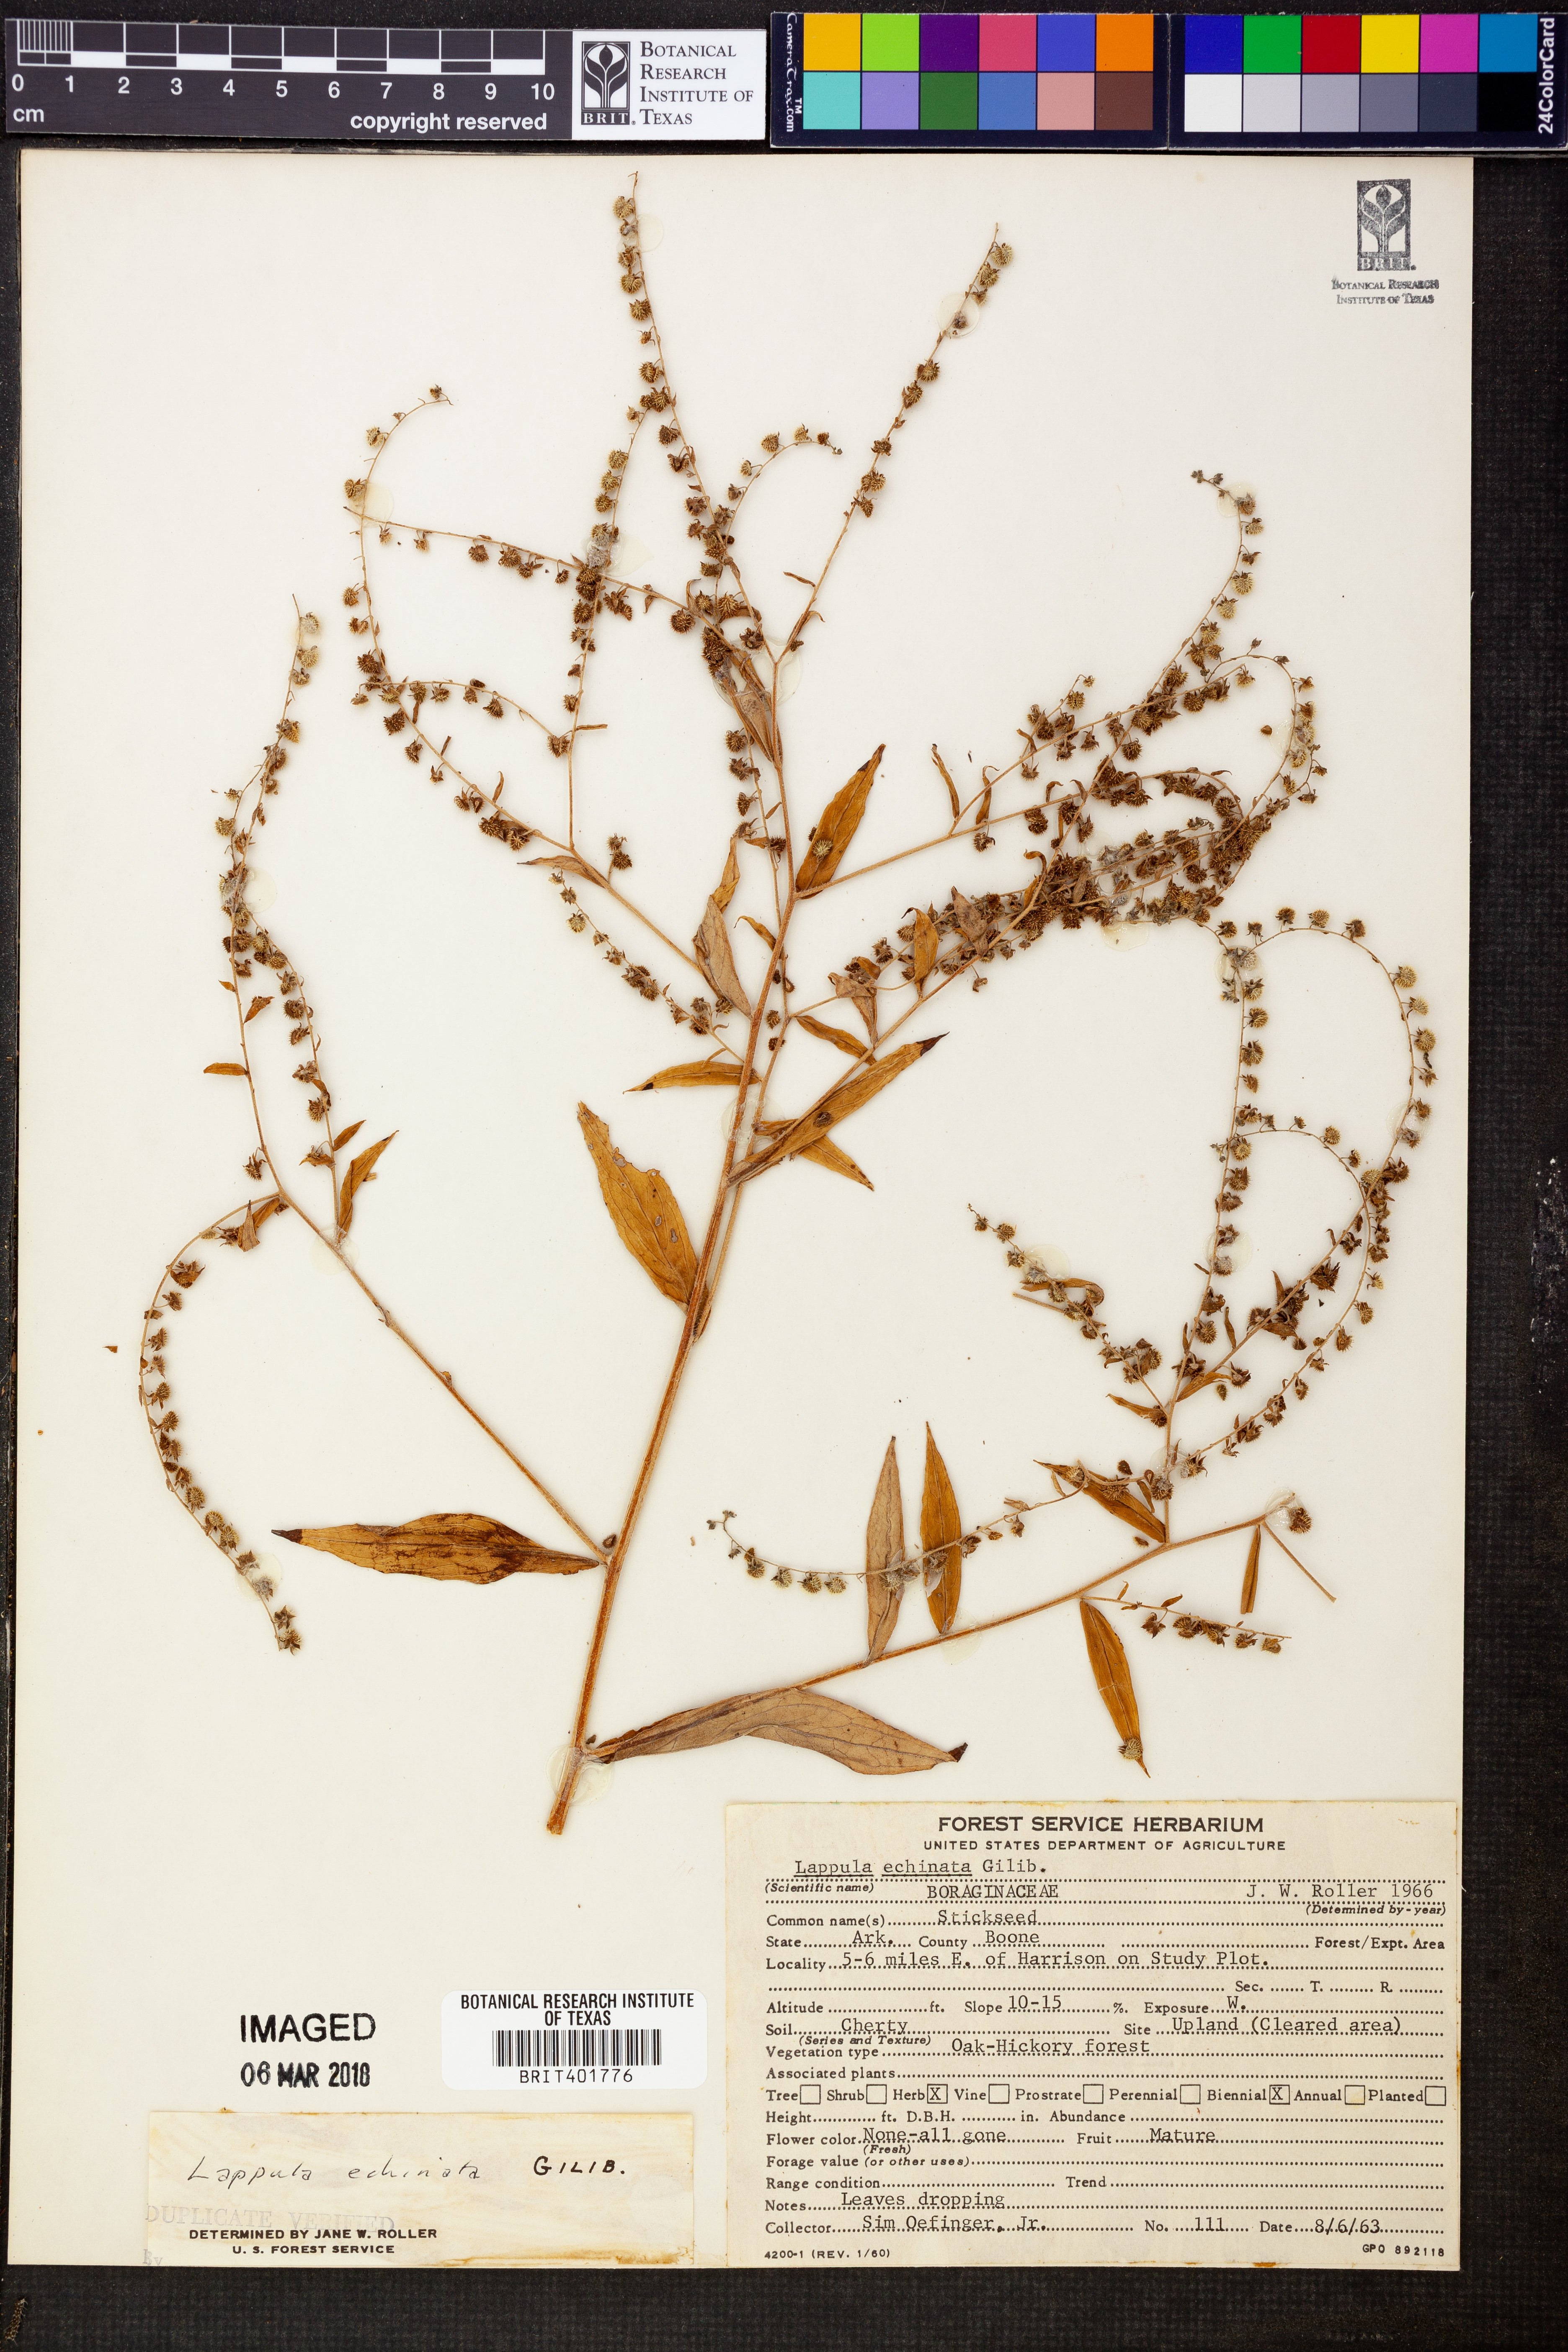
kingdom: Plantae
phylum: Tracheophyta
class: Magnoliopsida
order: Boraginales
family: Boraginaceae
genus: Lappula
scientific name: Lappula squarrosa
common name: European stickseed
